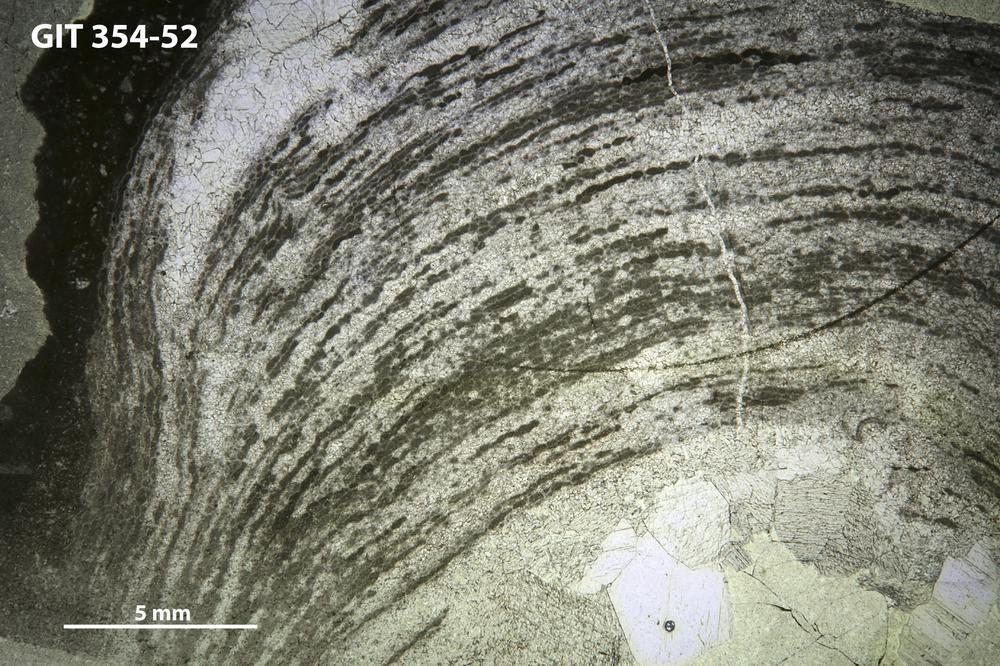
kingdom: Animalia
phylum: Porifera
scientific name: Porifera
